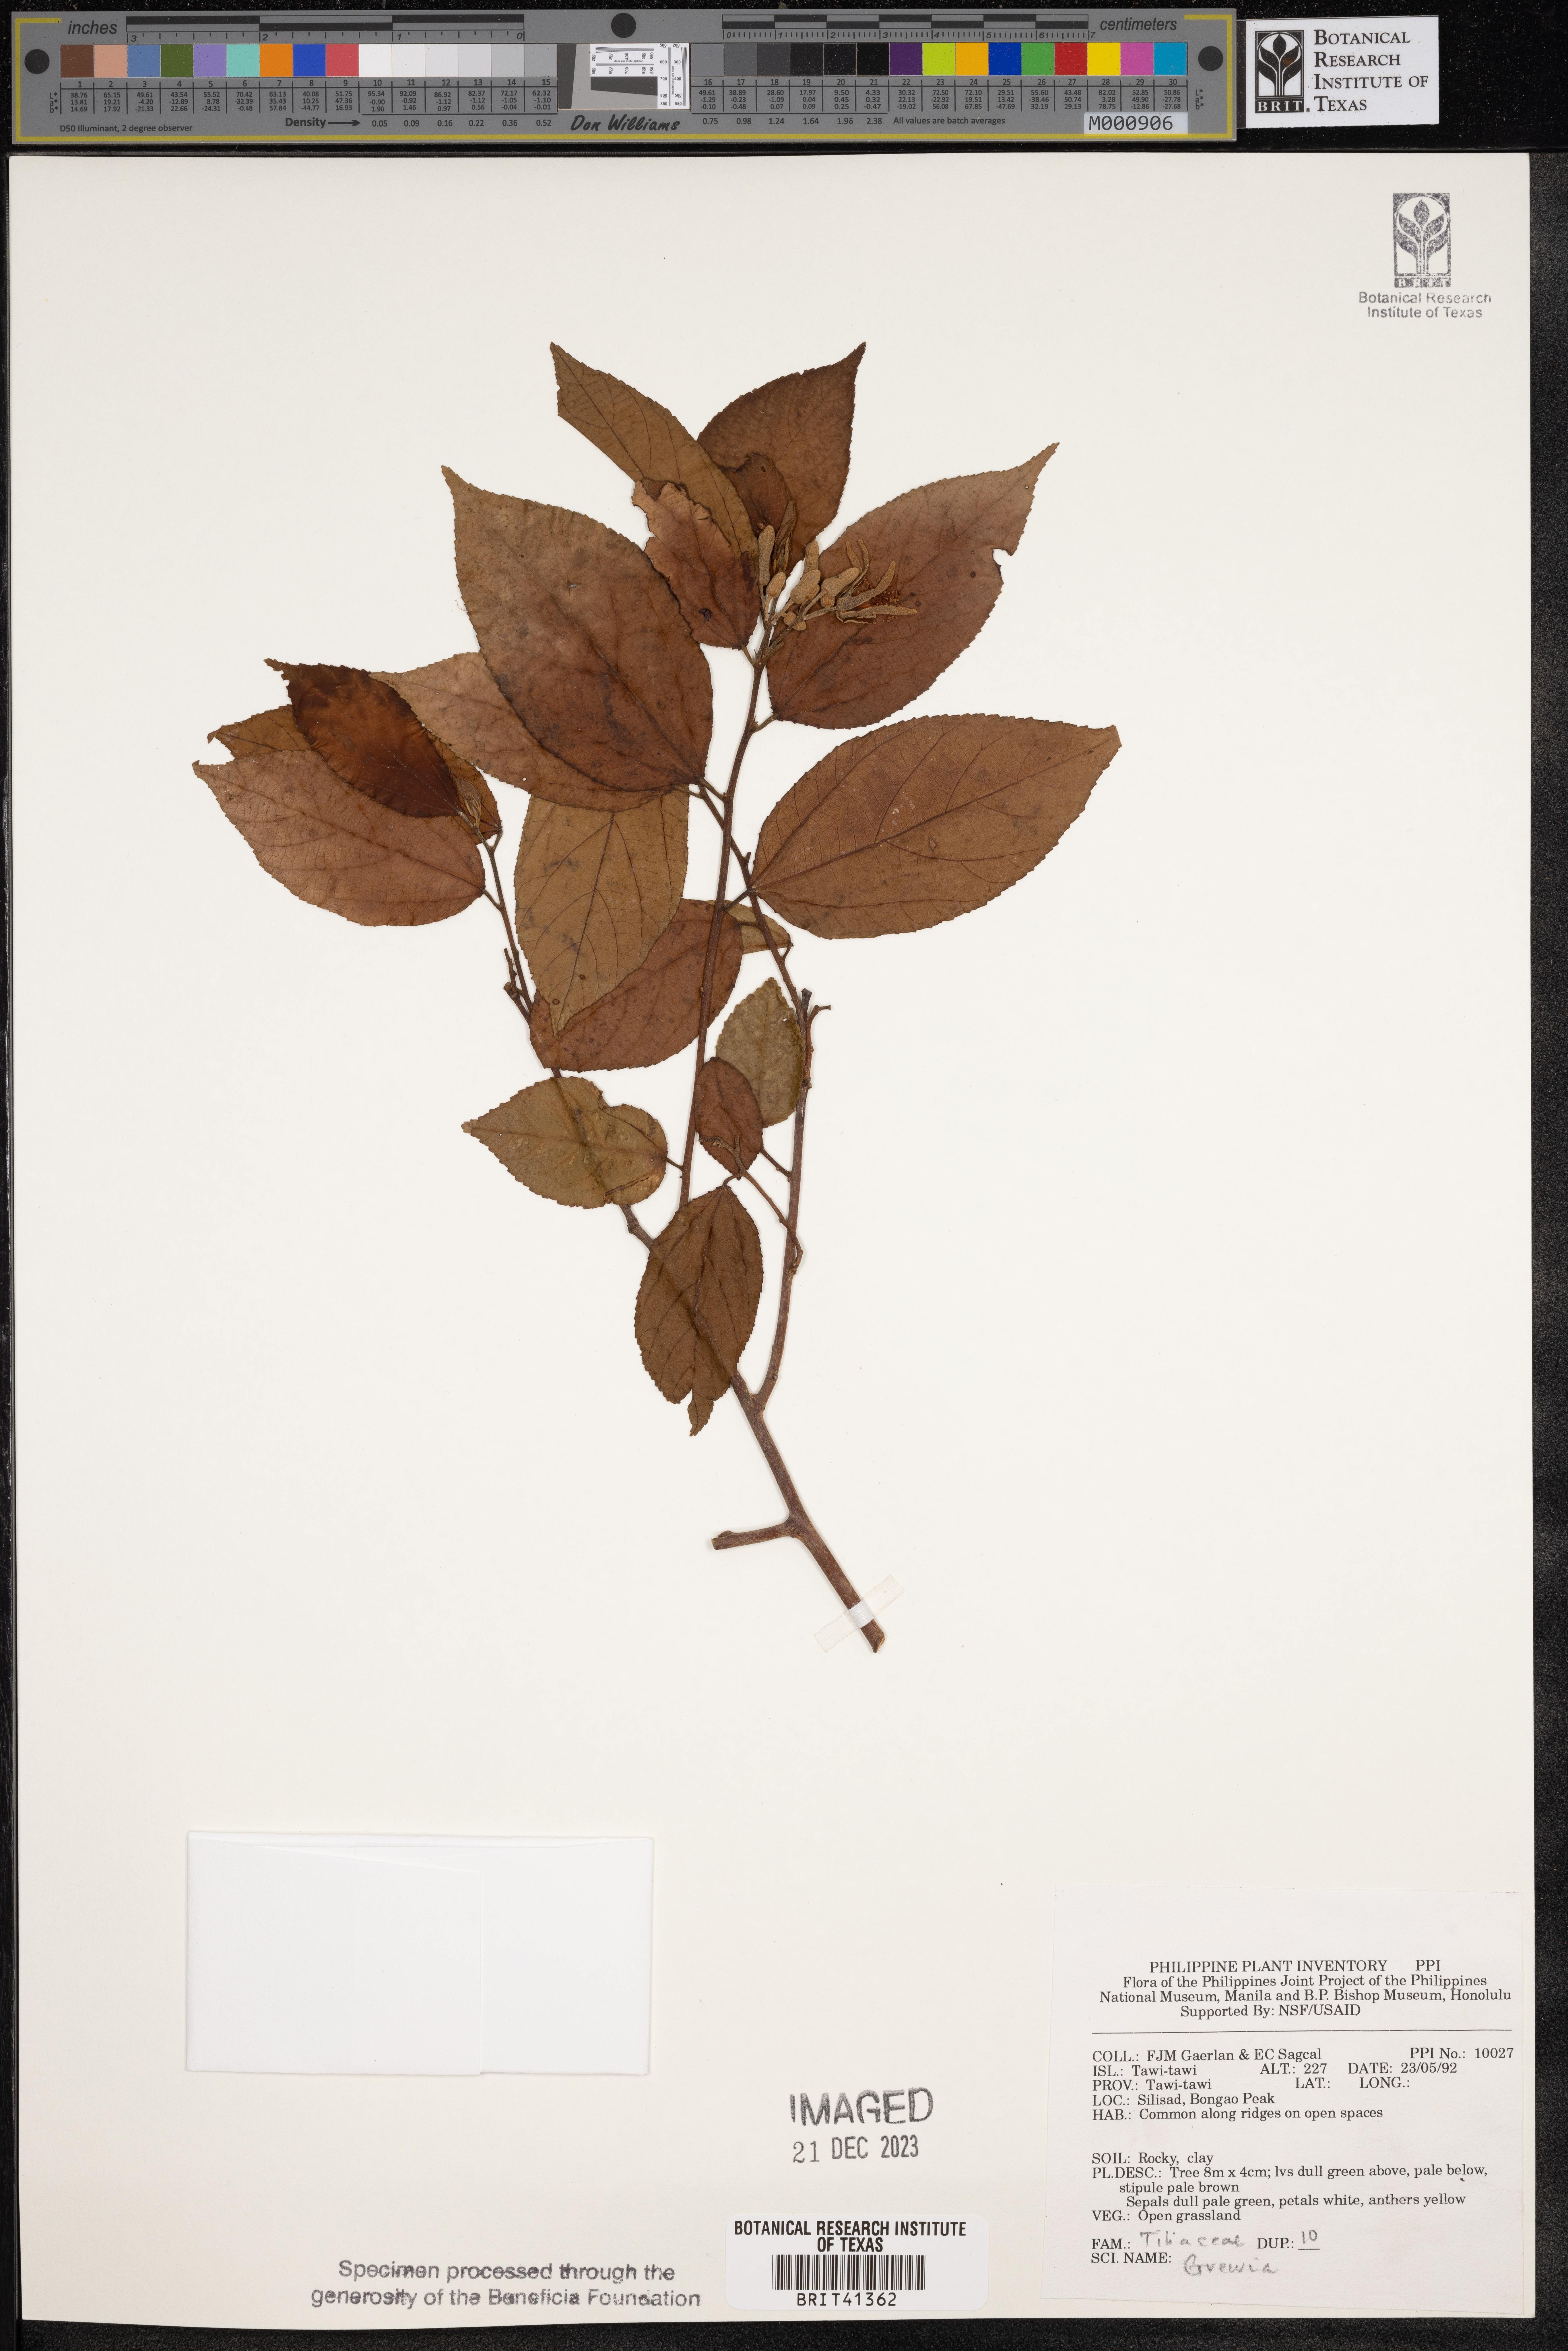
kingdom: Plantae
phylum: Tracheophyta
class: Magnoliopsida
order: Malvales
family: Malvaceae
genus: Grewia
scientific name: Grewia
